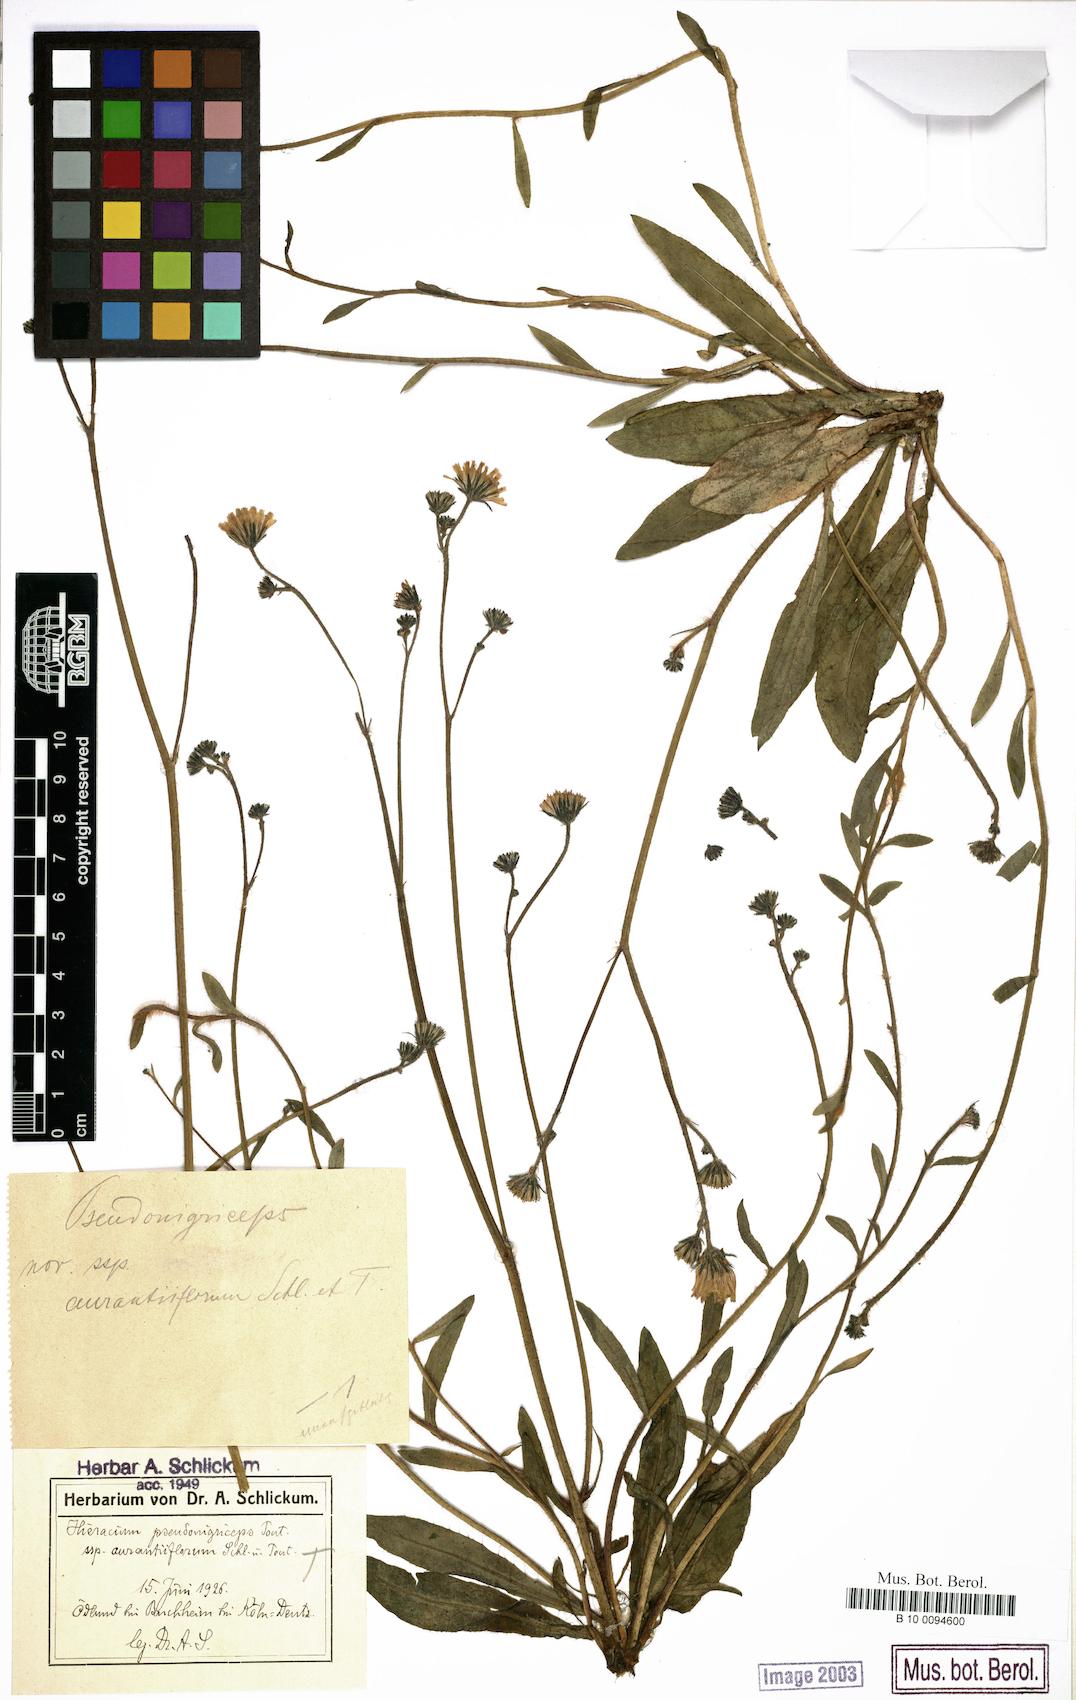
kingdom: Plantae
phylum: Tracheophyta
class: Magnoliopsida
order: Asterales
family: Asteraceae
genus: Hieracium
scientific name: Hieracium
